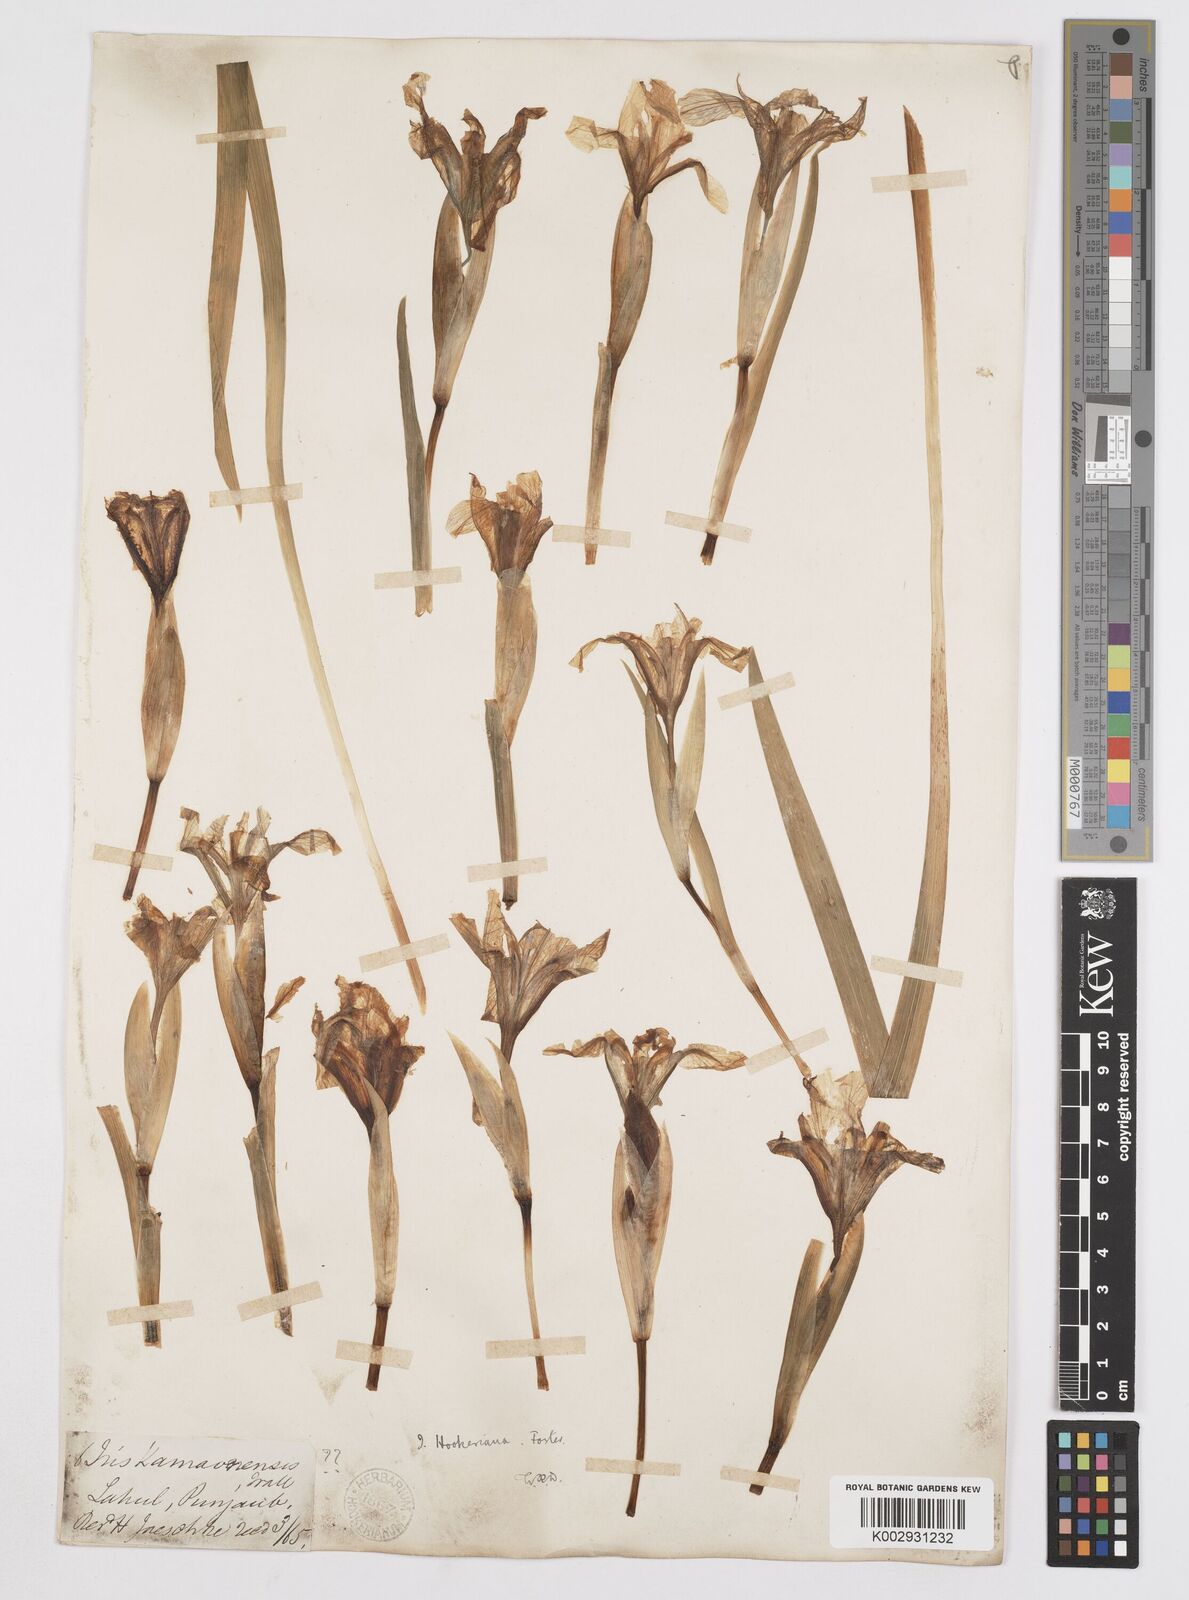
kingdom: Plantae
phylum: Tracheophyta
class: Liliopsida
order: Asparagales
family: Iridaceae
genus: Iris
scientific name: Iris hookeriana
